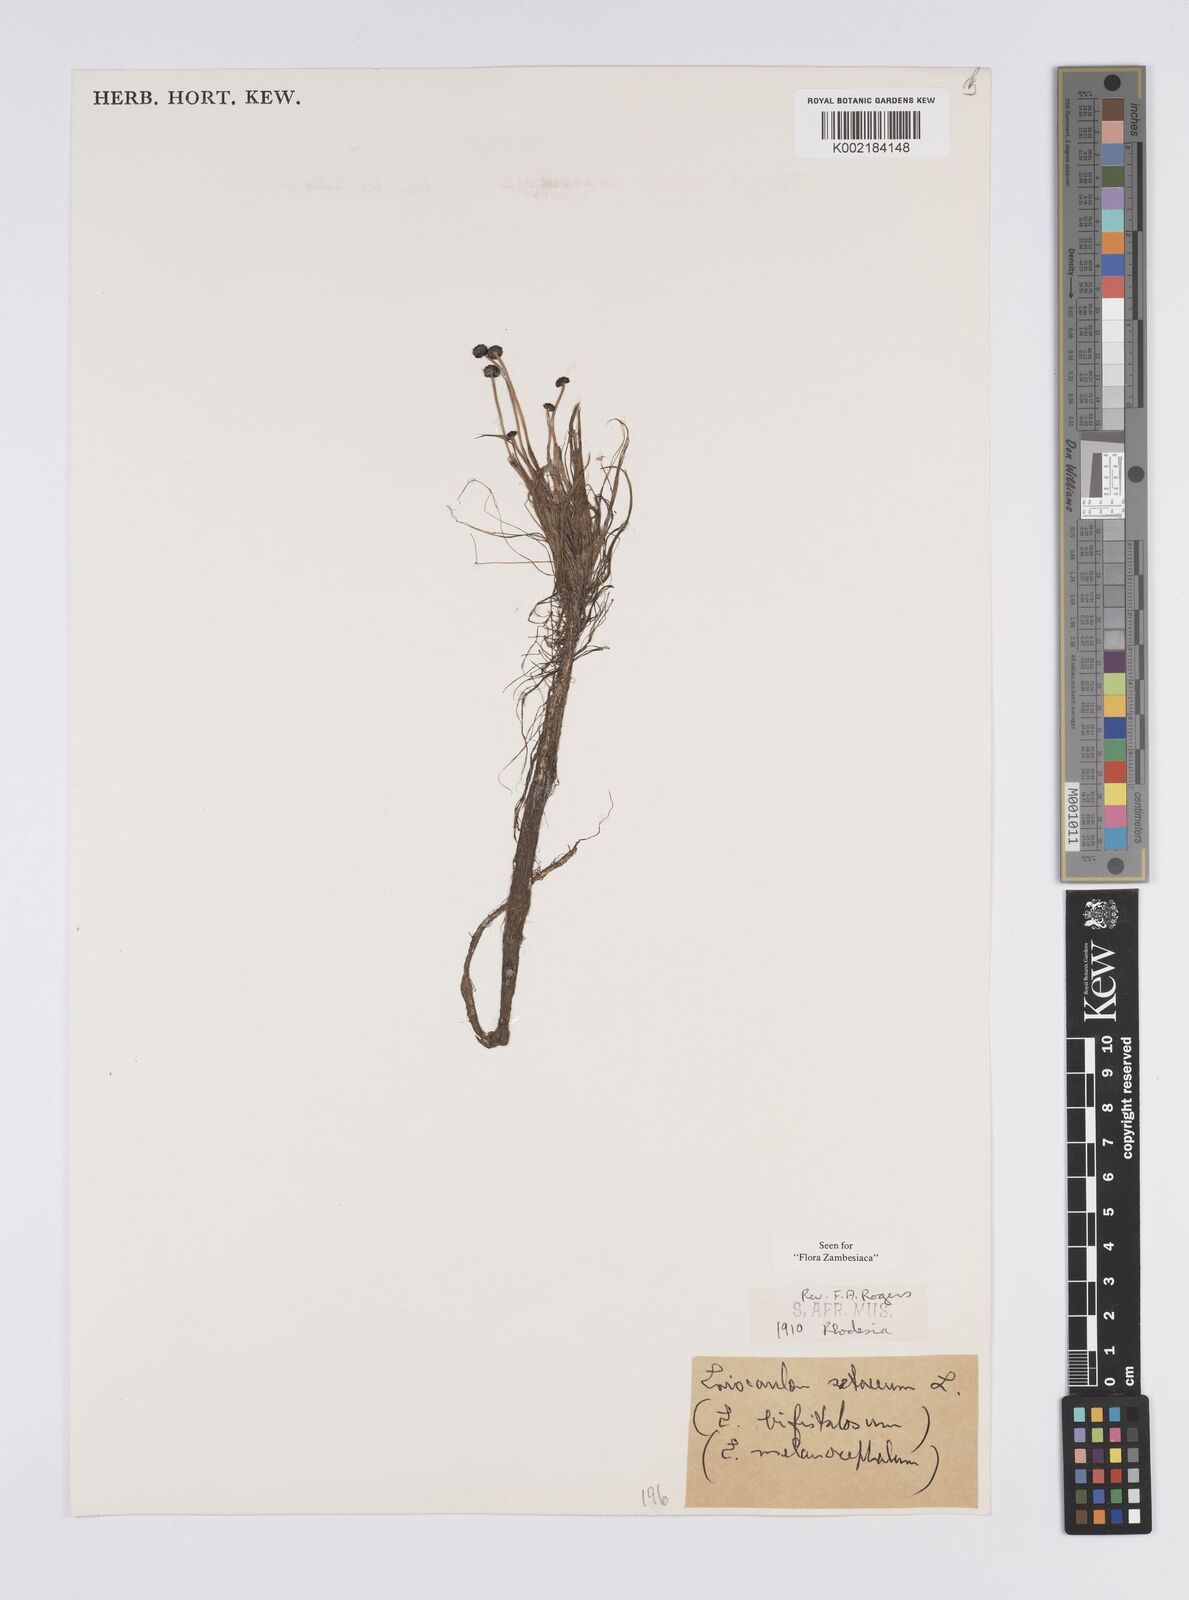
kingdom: Plantae
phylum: Tracheophyta
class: Liliopsida
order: Poales
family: Eriocaulaceae
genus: Eriocaulon
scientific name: Eriocaulon setaceum
